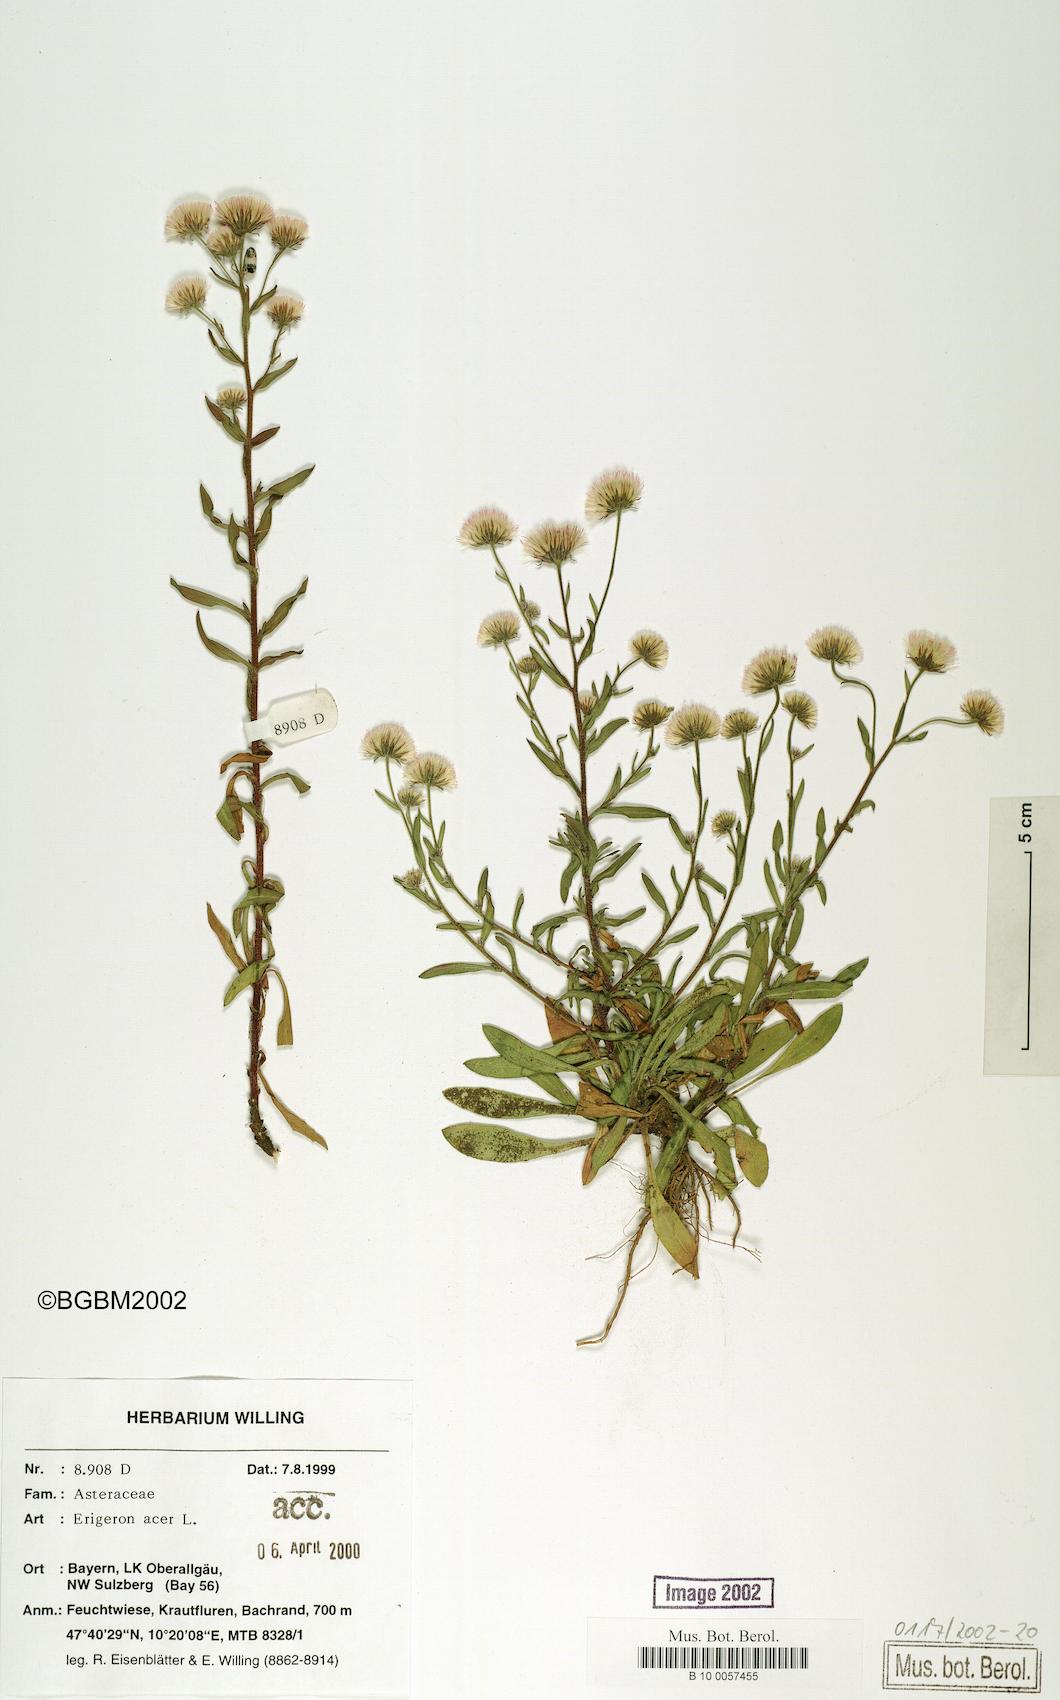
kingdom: Plantae
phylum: Tracheophyta
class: Magnoliopsida
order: Asterales
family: Asteraceae
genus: Erigeron
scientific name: Erigeron acer
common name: Blue fleabane
